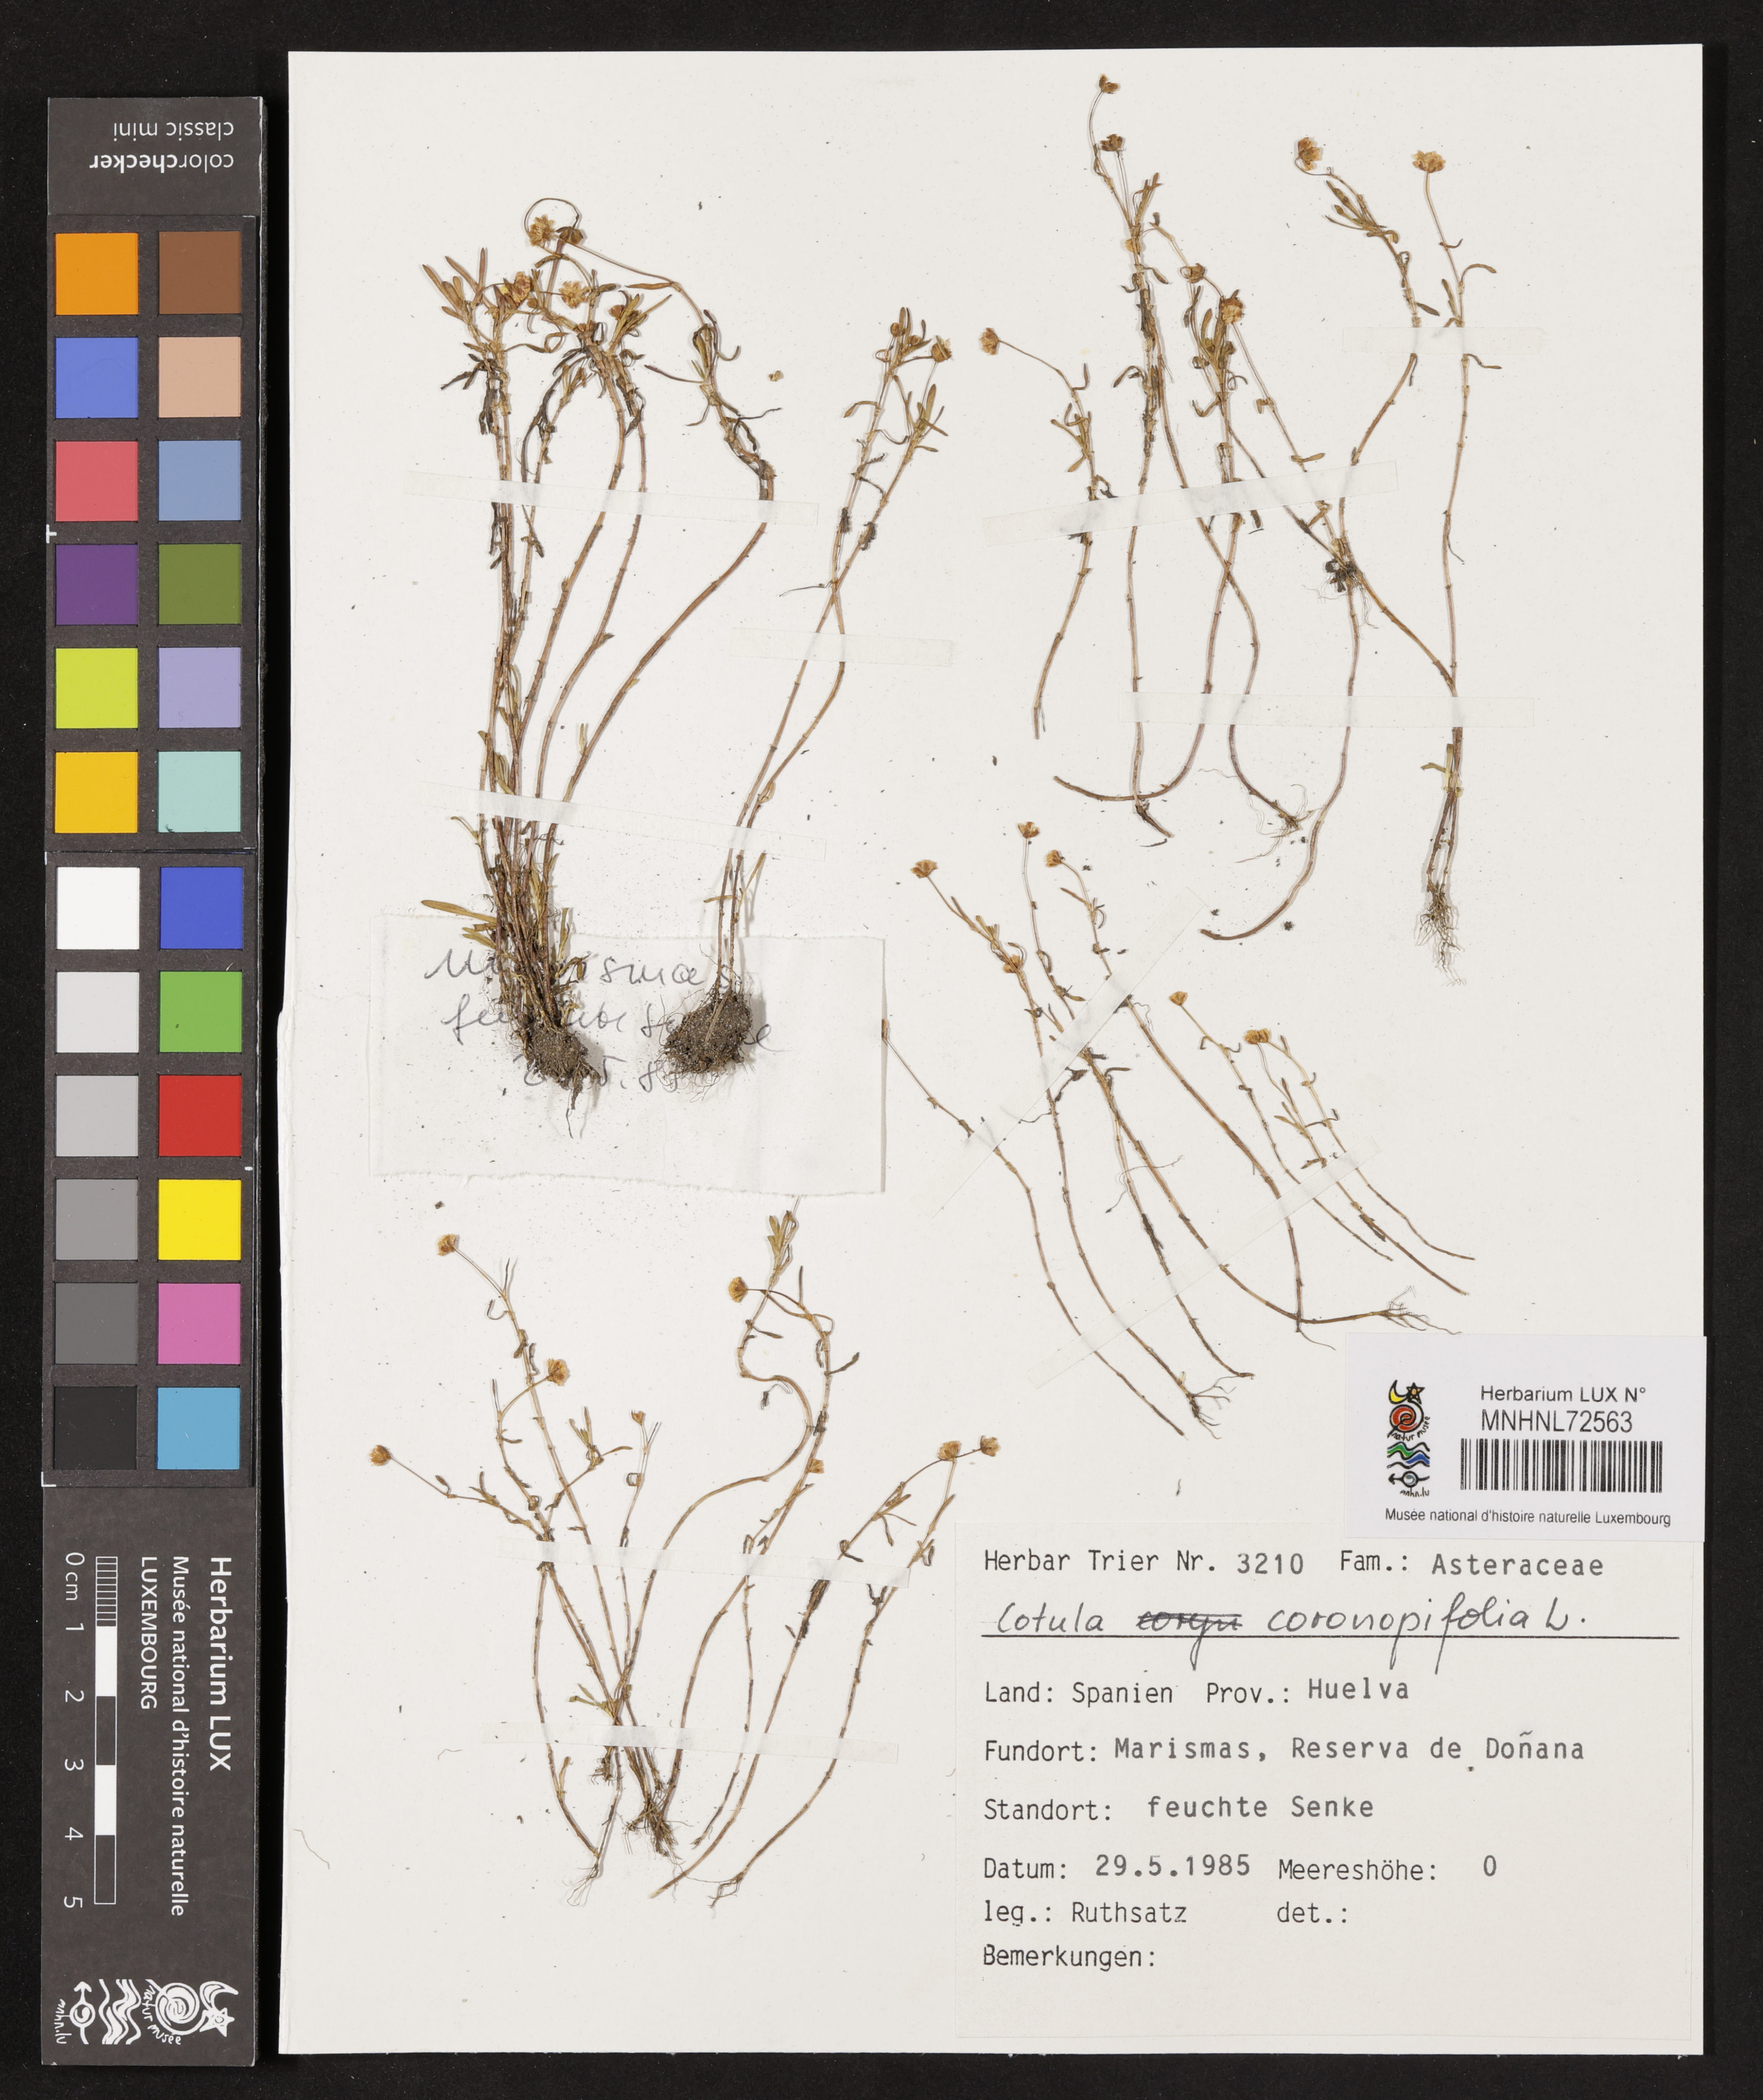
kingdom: Plantae
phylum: Tracheophyta
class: Magnoliopsida
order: Asterales
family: Asteraceae
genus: Cotula
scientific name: Cotula coronopifolia
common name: Buttonweed
